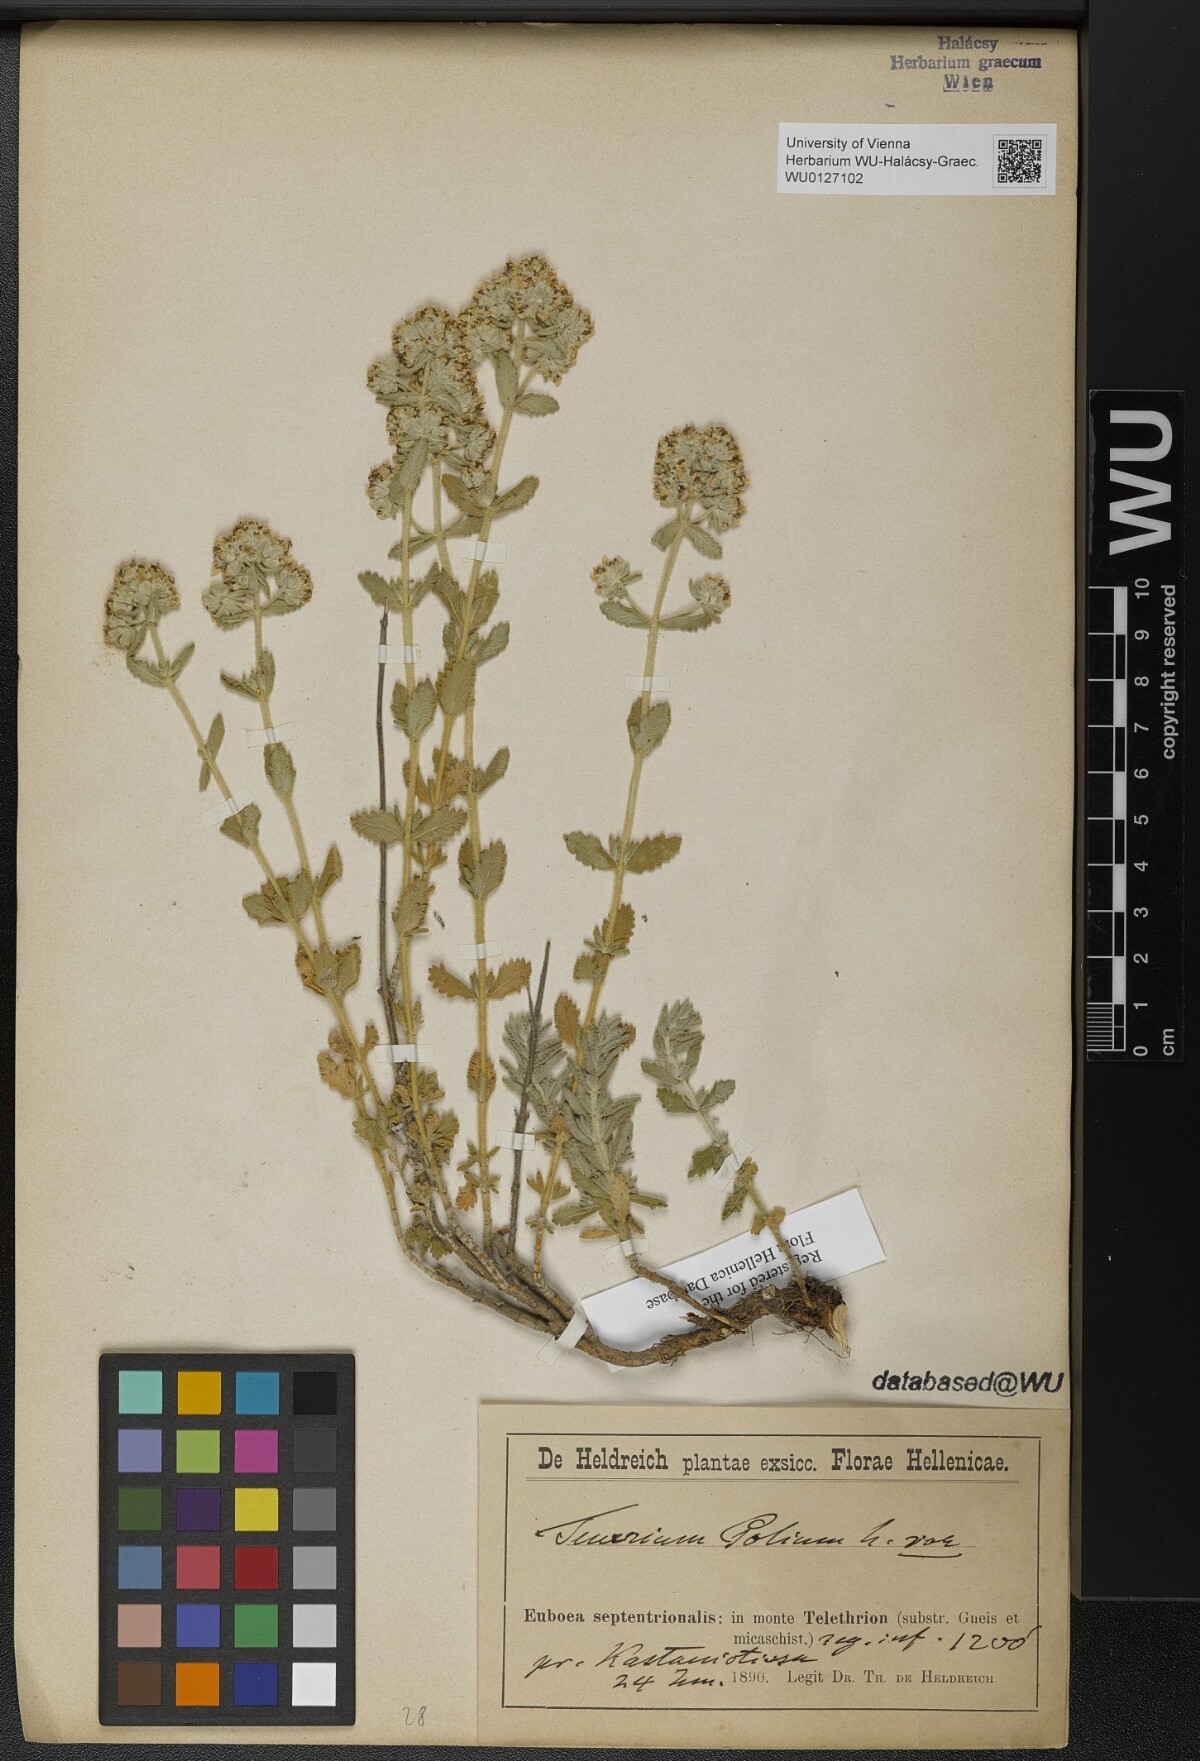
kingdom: Plantae
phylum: Tracheophyta
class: Magnoliopsida
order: Lamiales
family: Lamiaceae
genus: Teucrium
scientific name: Teucrium corymbiferum
